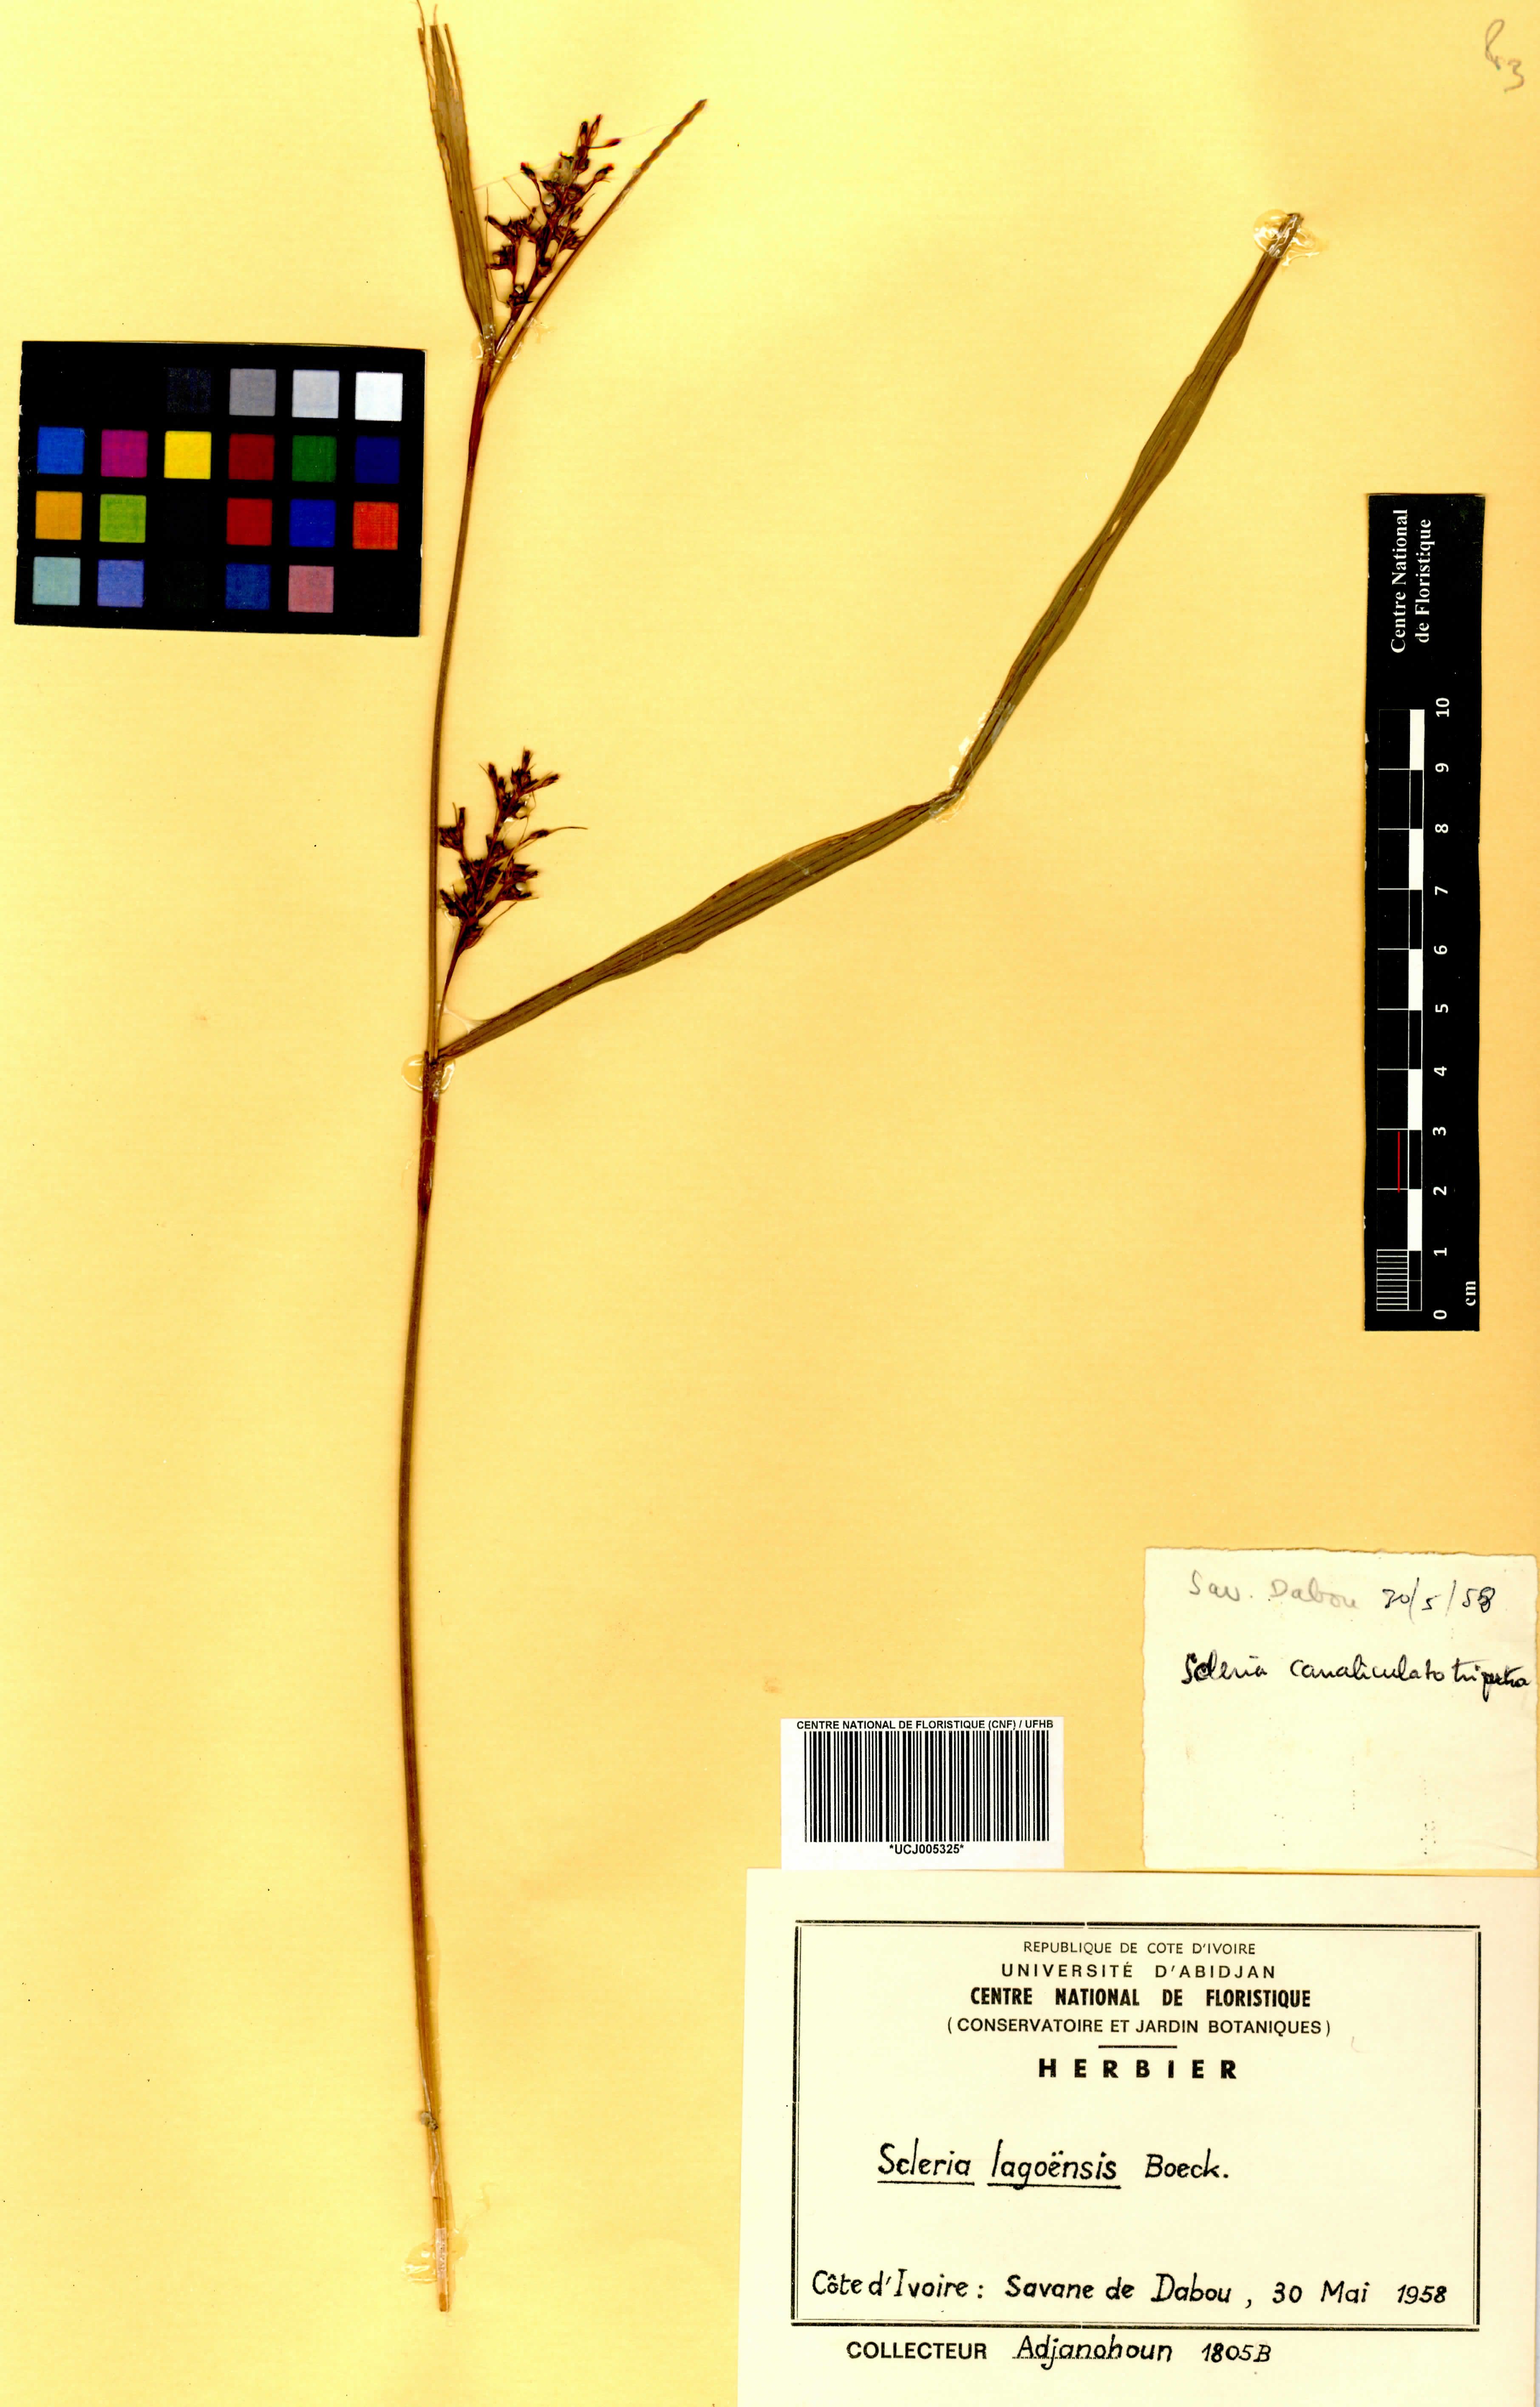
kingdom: Plantae
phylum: Tracheophyta
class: Liliopsida
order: Poales
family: Cyperaceae
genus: Scleria
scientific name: Scleria lagoensis
